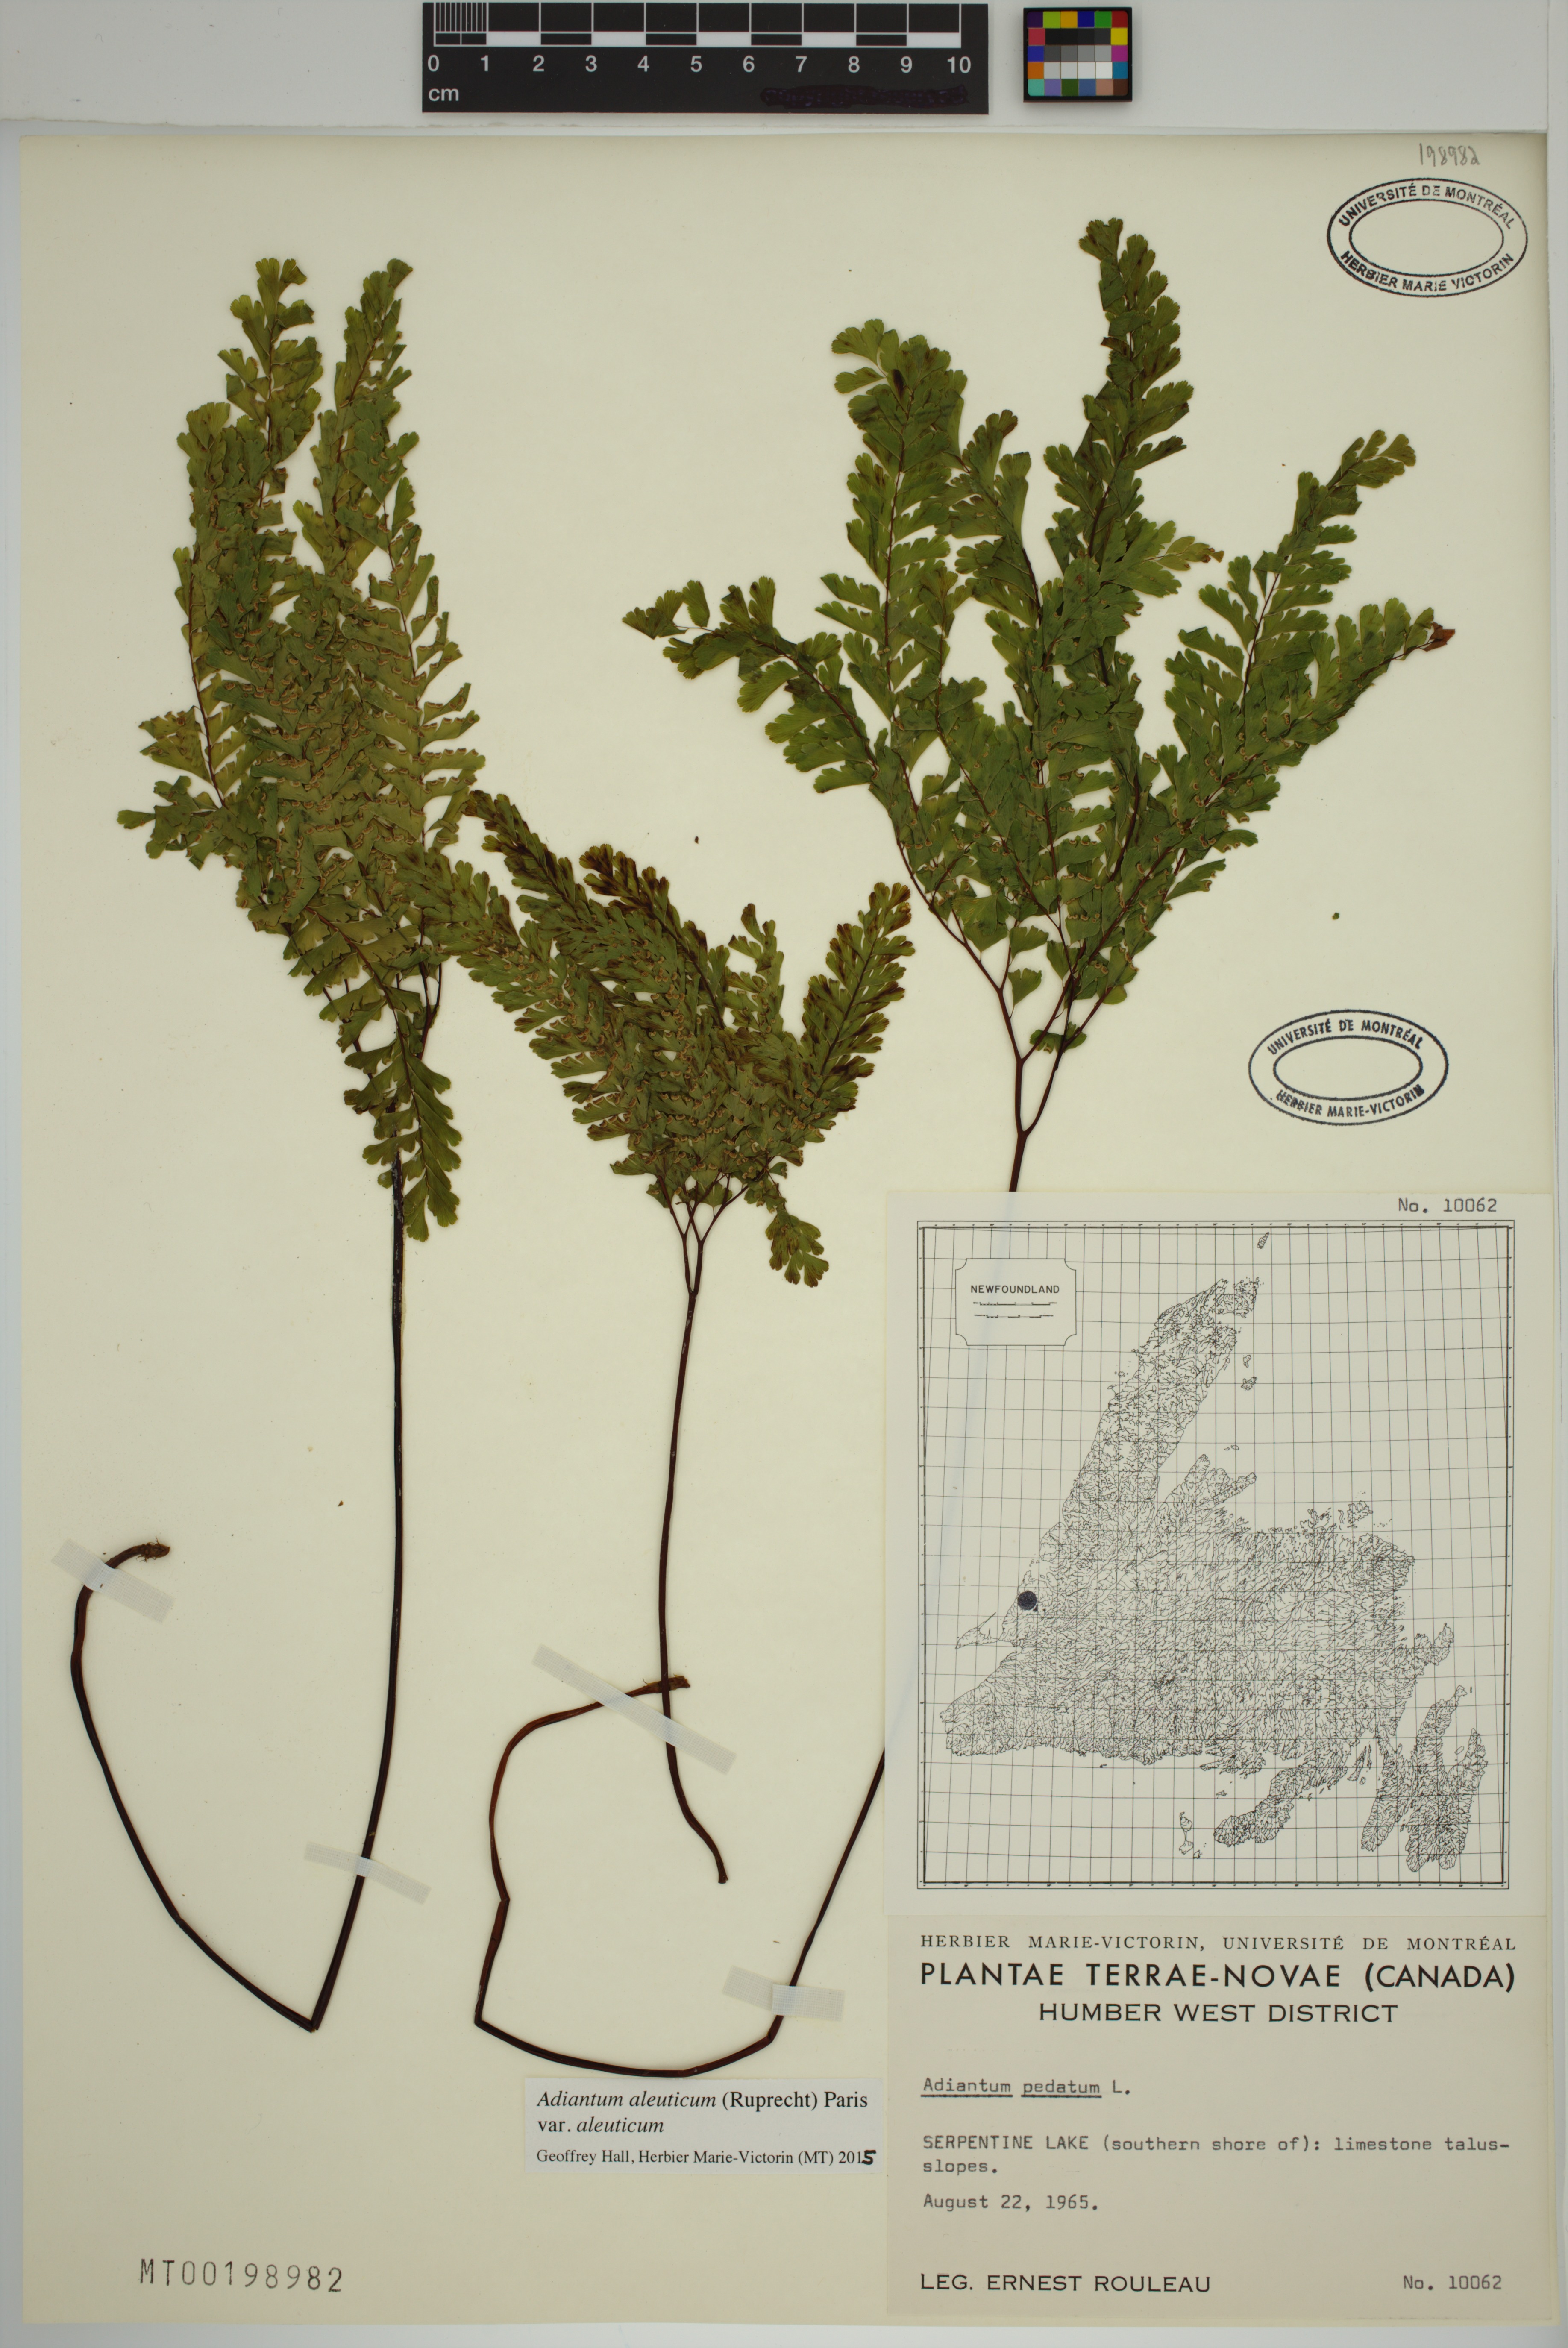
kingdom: Plantae
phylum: Tracheophyta
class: Polypodiopsida
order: Polypodiales
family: Pteridaceae
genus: Adiantum
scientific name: Adiantum aleuticum
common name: Aleutian maidenhair fern
